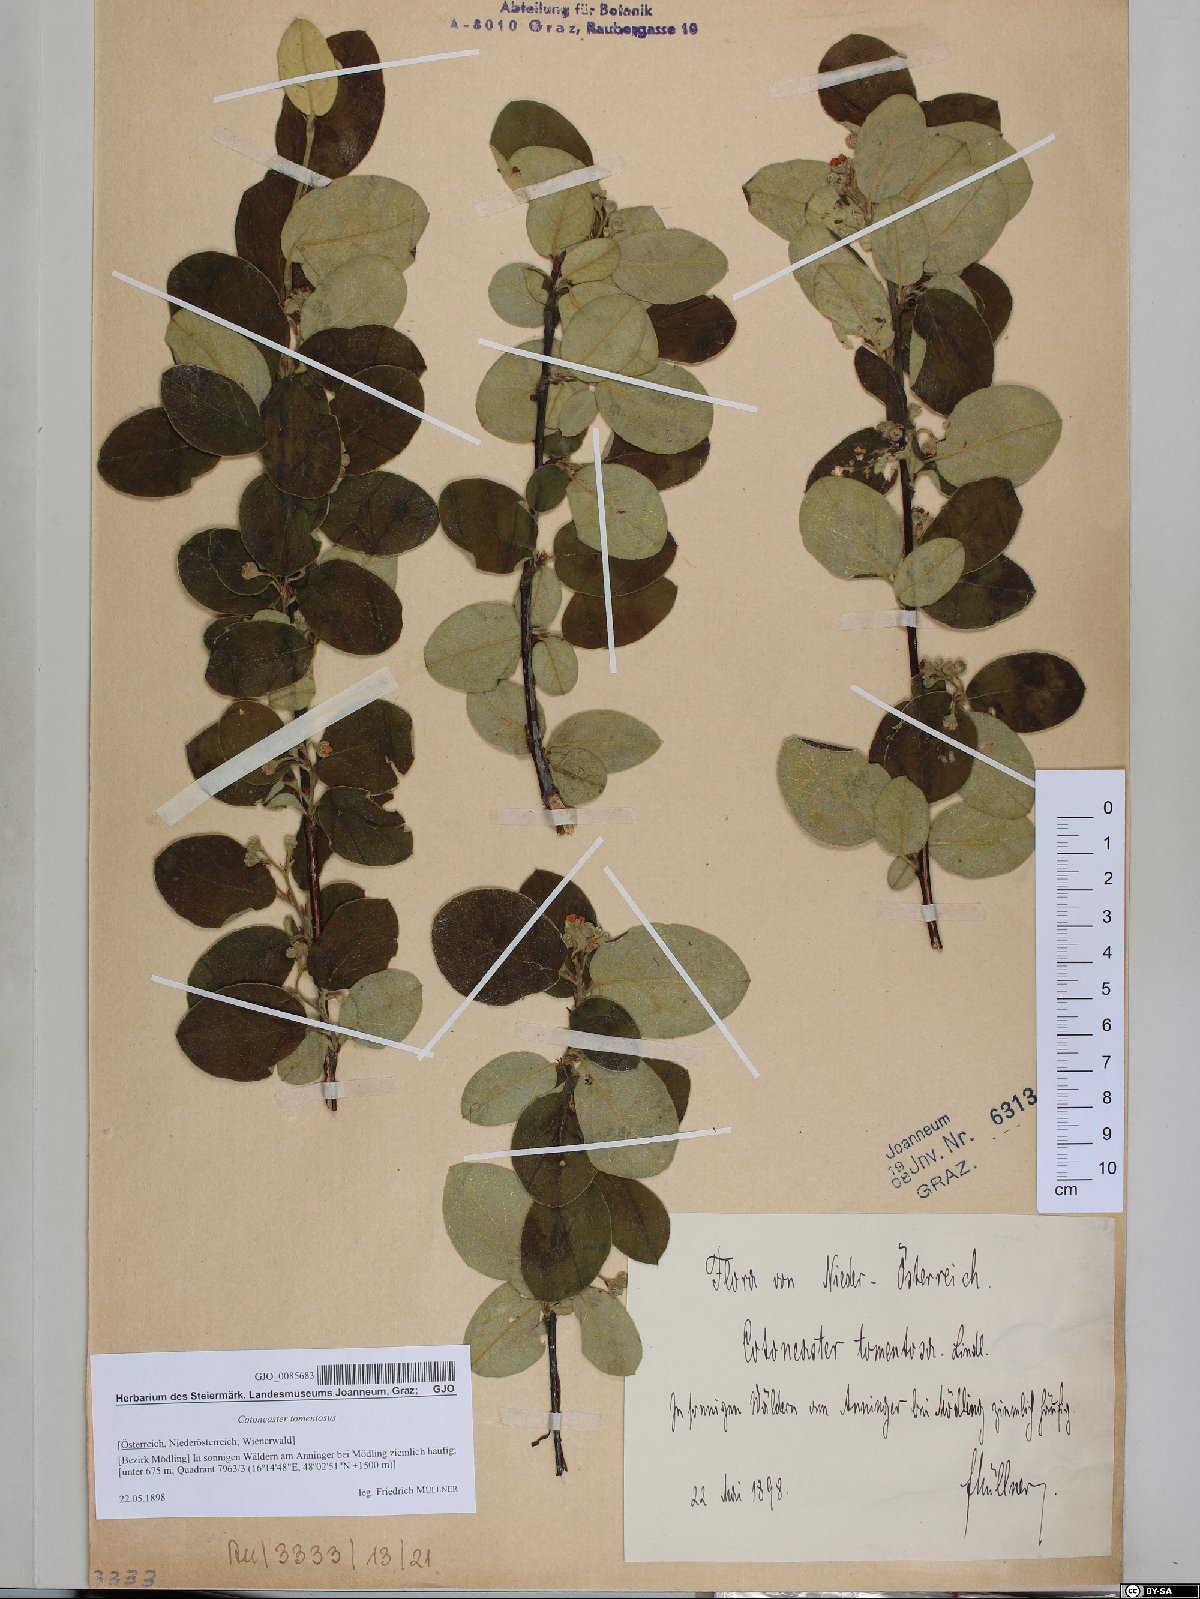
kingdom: Plantae
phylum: Tracheophyta
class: Magnoliopsida
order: Rosales
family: Rosaceae
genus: Cotoneaster
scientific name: Cotoneaster tomentosus
